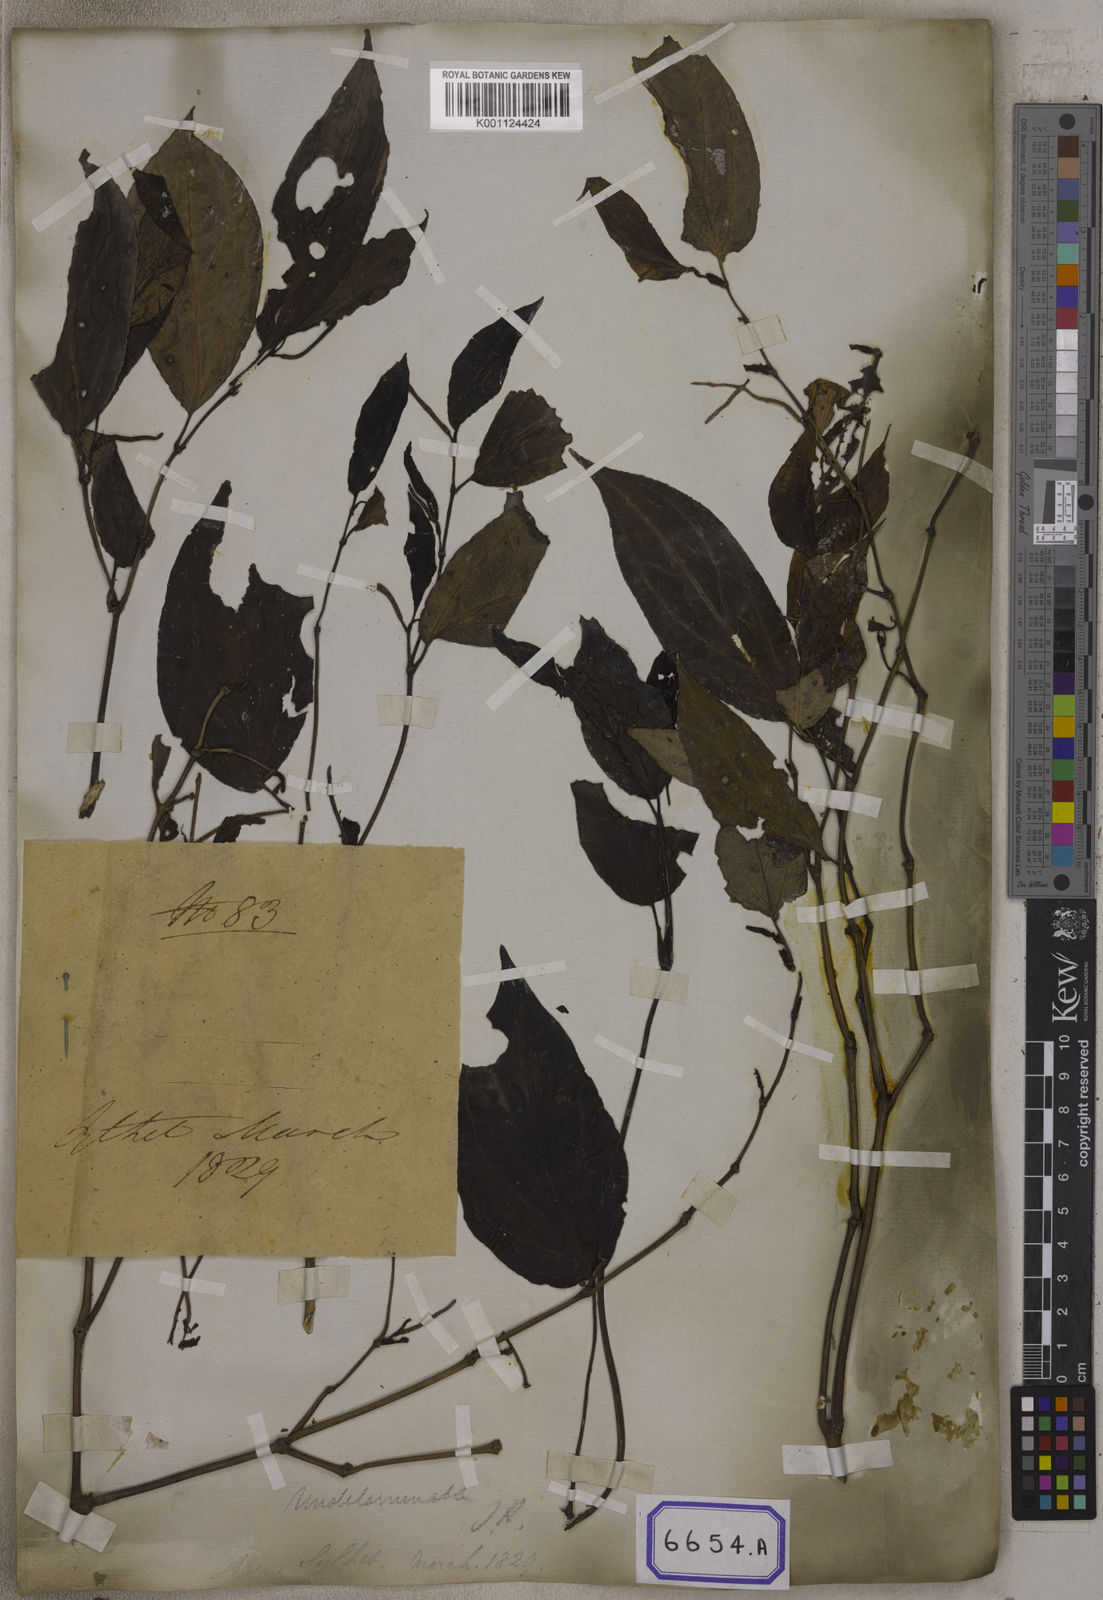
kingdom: Plantae
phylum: Tracheophyta
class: Magnoliopsida
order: Piperales
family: Piperaceae
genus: Piper
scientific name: Piper
